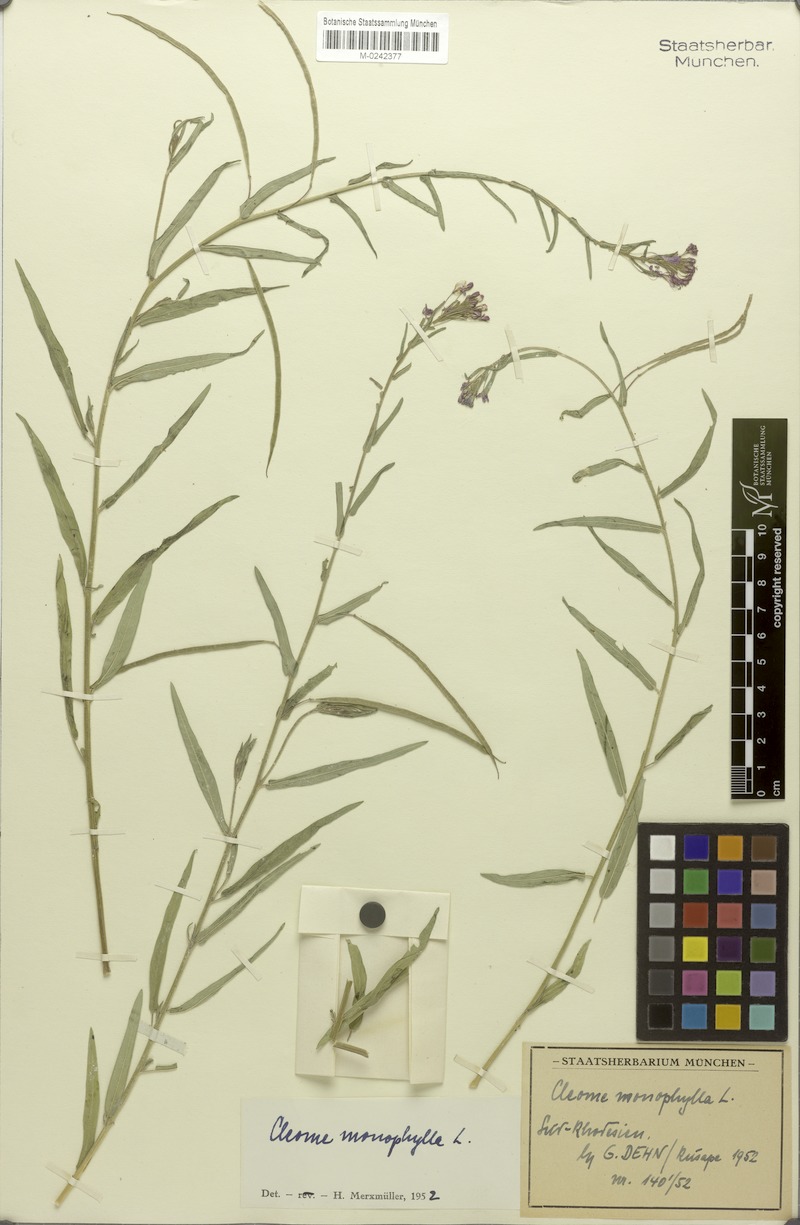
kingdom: Plantae
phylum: Tracheophyta
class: Magnoliopsida
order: Brassicales
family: Cleomaceae
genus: Sieruela
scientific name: Sieruela monophylla
